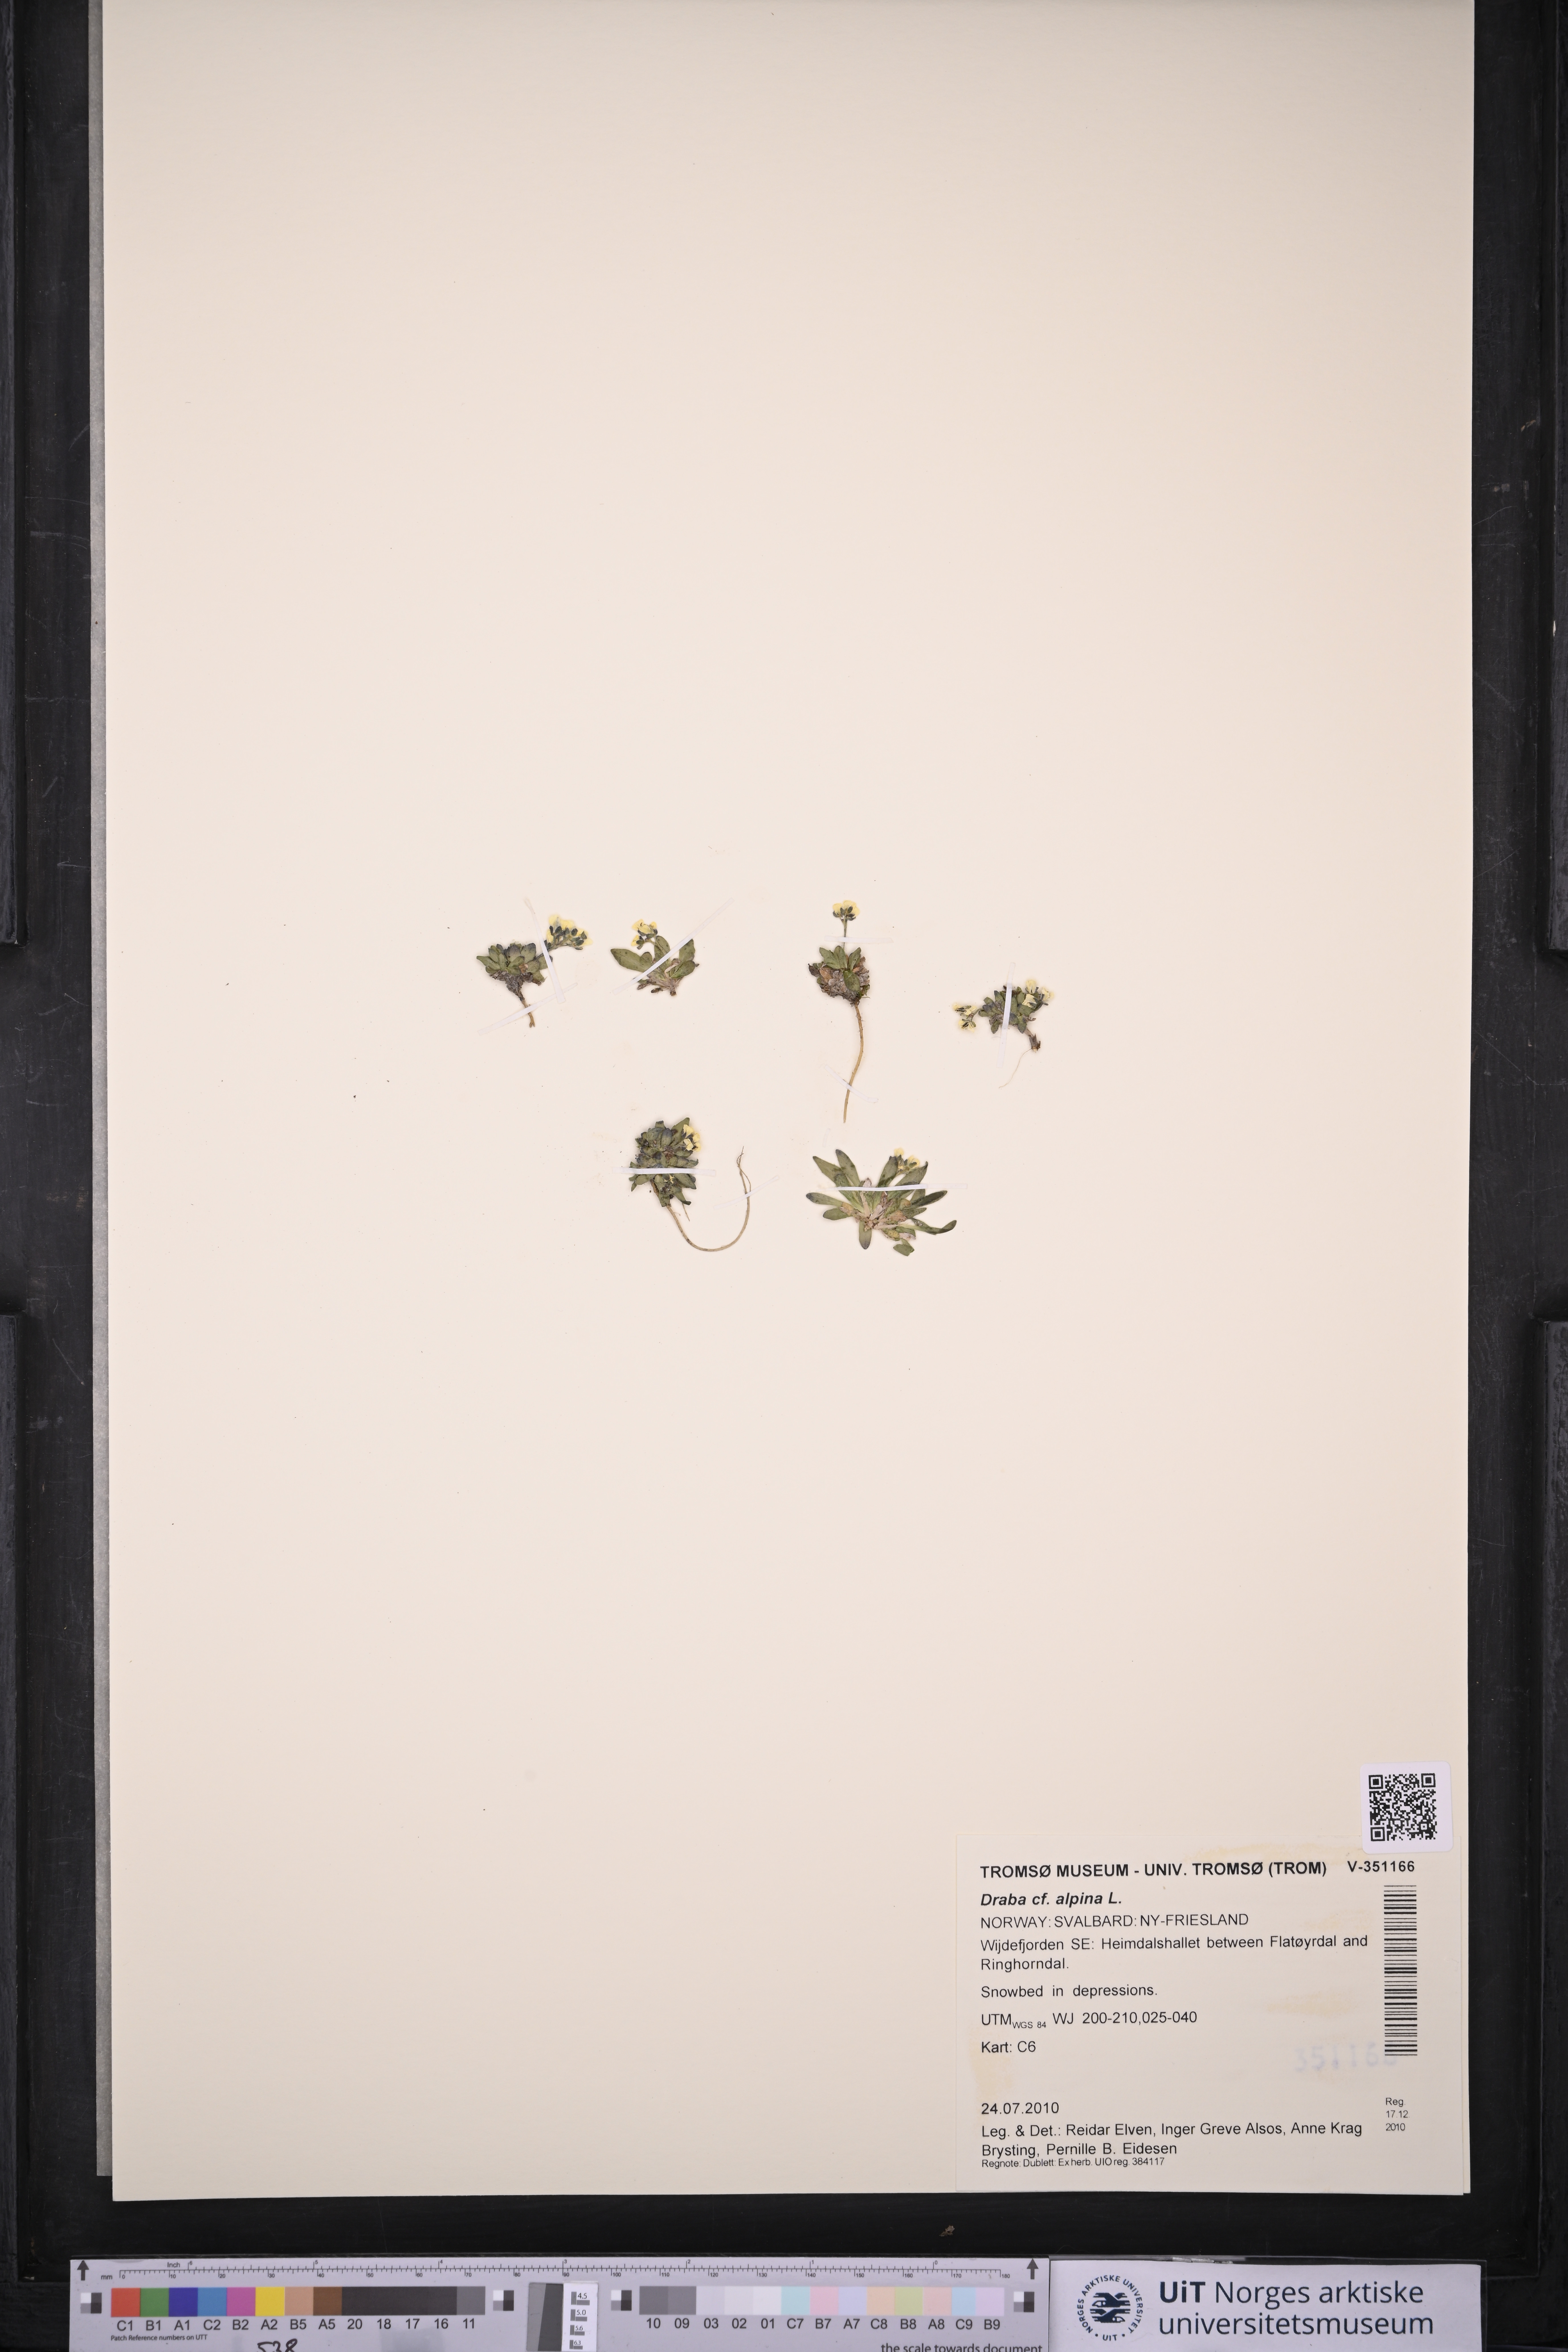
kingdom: Plantae
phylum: Tracheophyta
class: Magnoliopsida
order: Brassicales
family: Brassicaceae
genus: Draba
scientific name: Draba alpina
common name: Alpine draba
